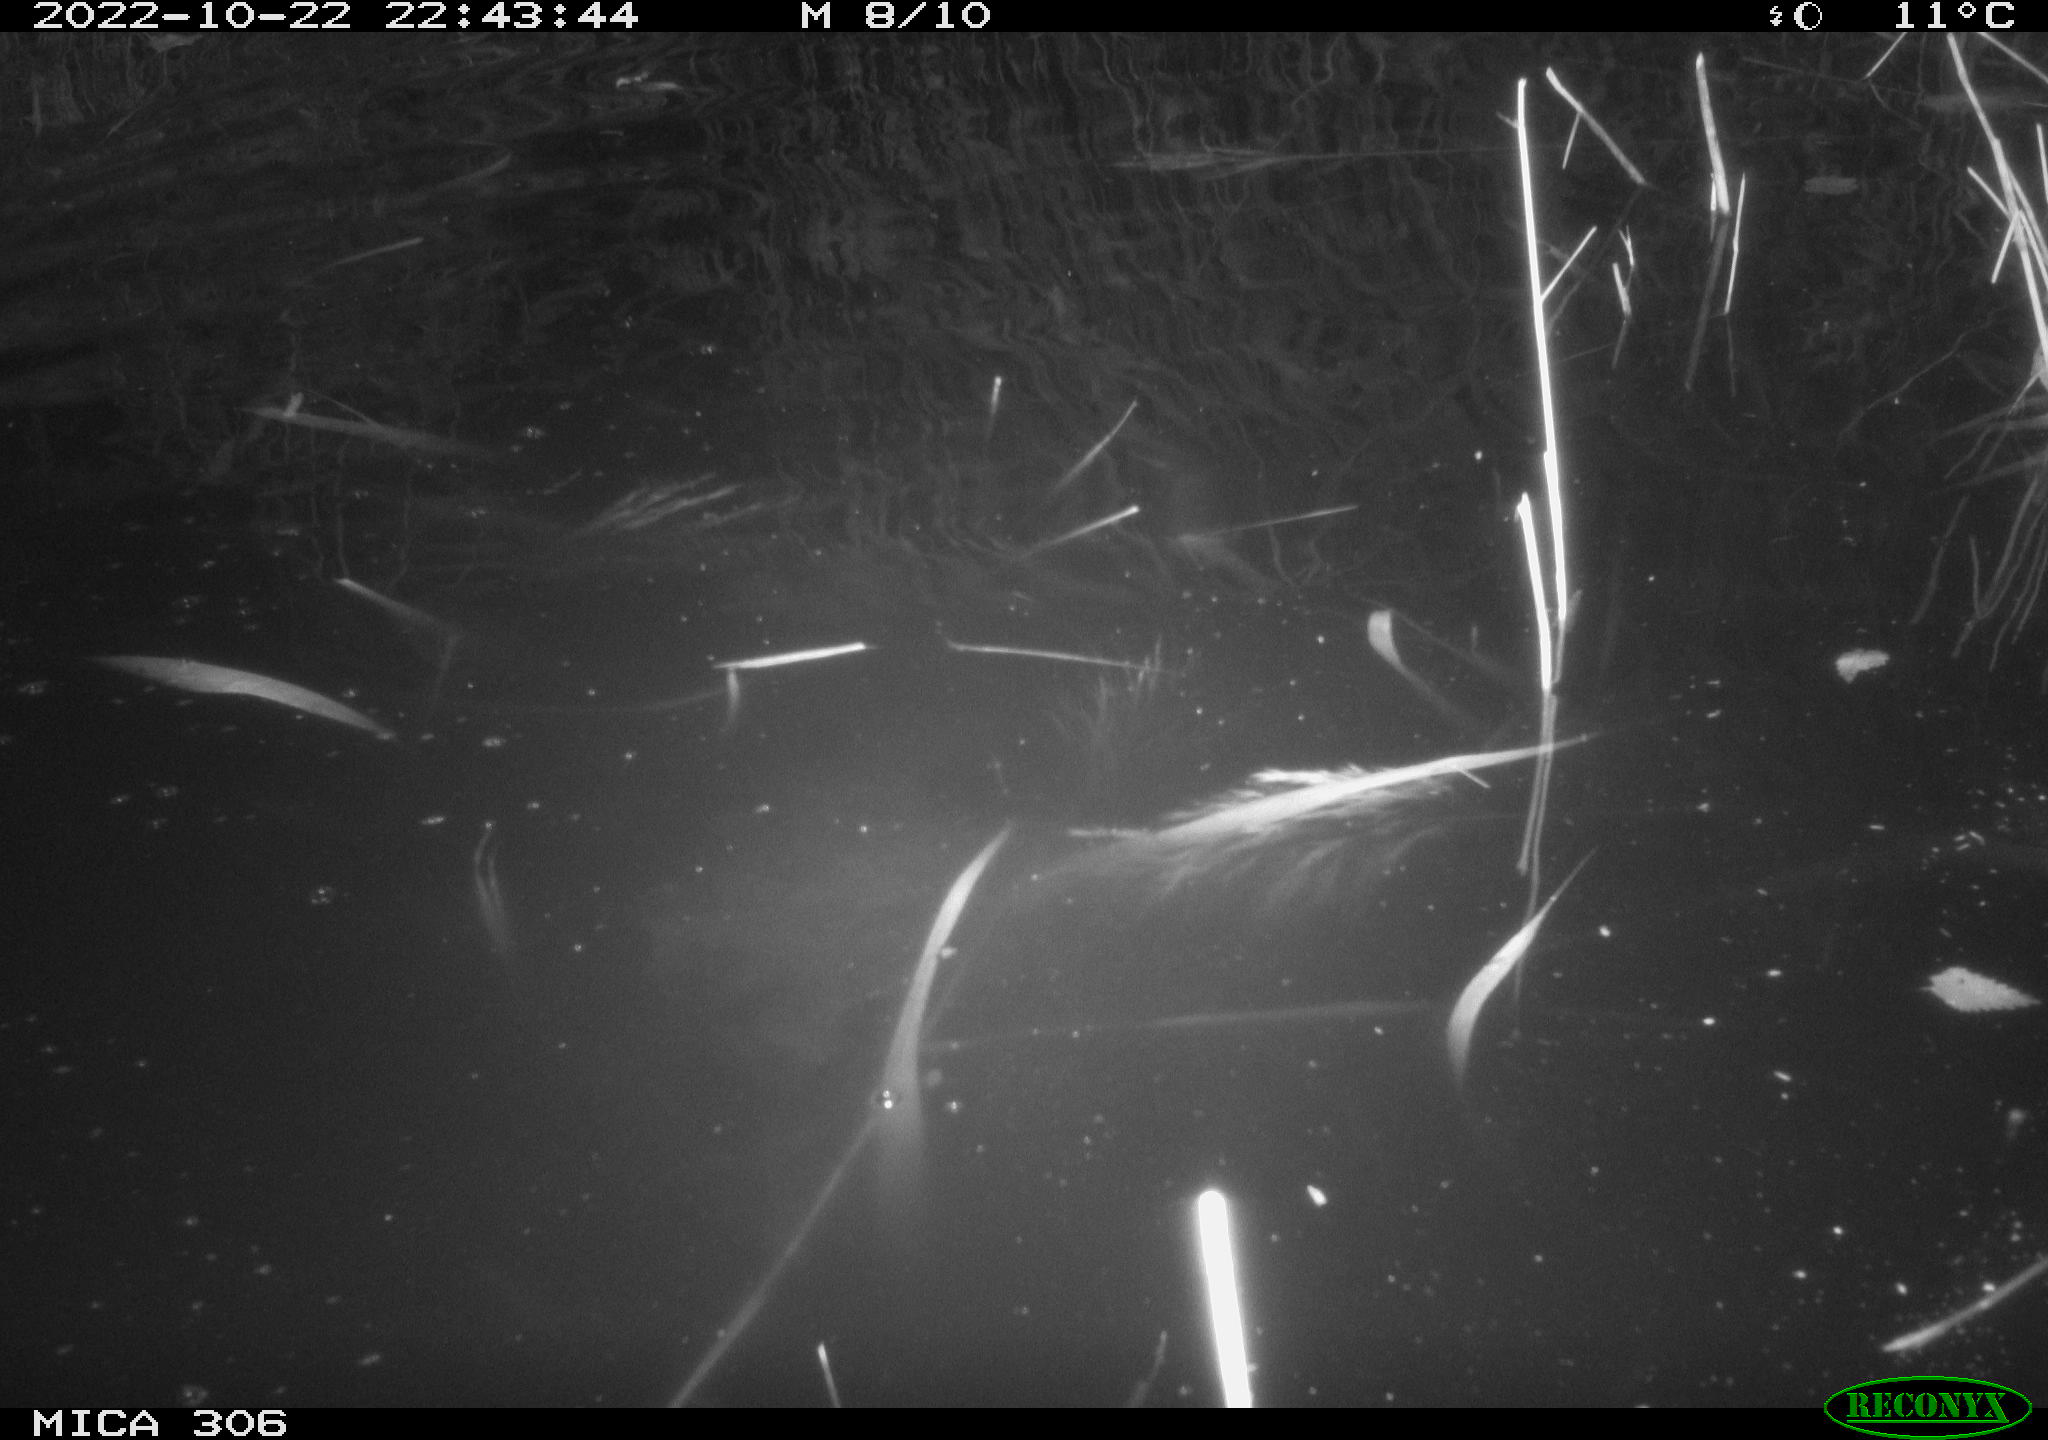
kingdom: Animalia
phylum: Chordata
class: Mammalia
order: Rodentia
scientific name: Rodentia
